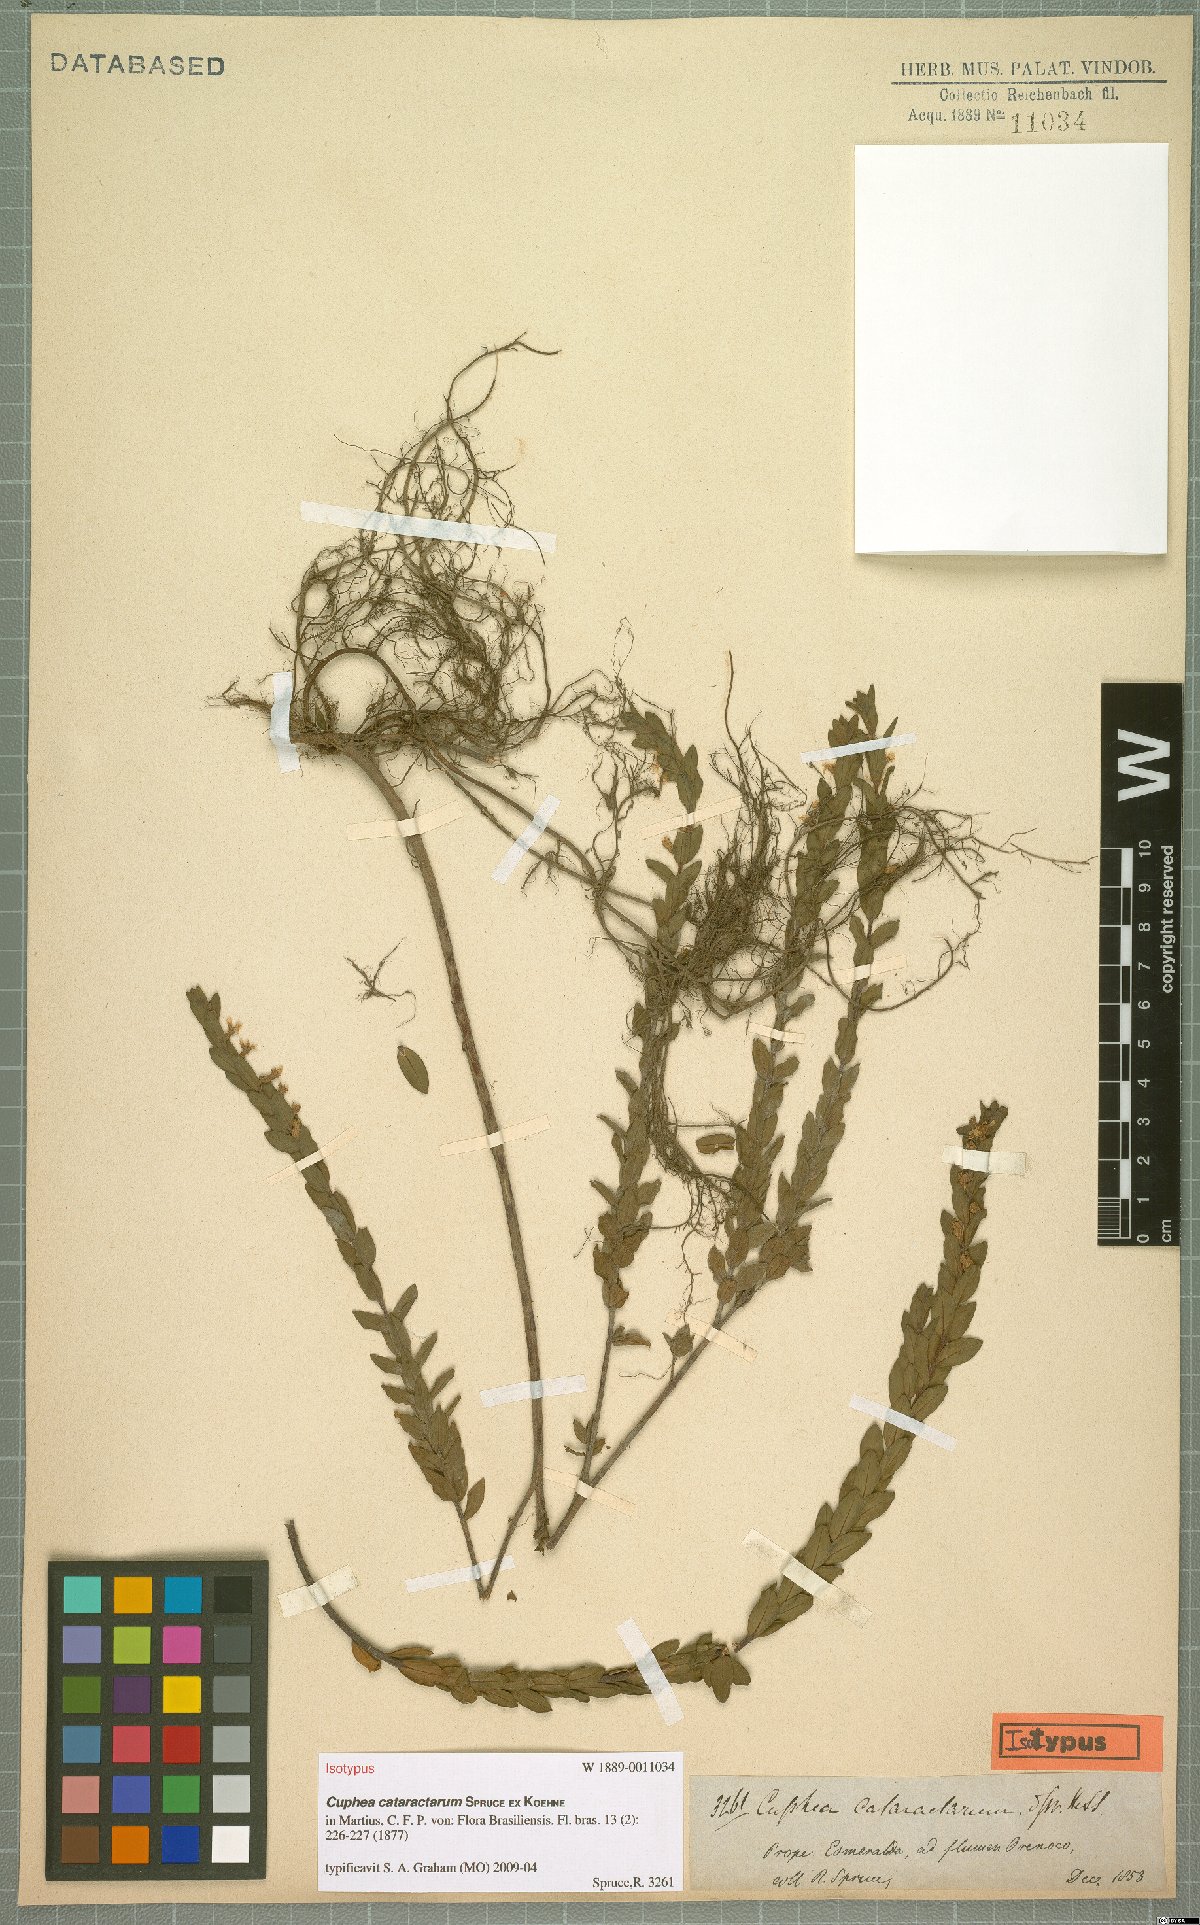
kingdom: Plantae
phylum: Tracheophyta
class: Magnoliopsida
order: Myrtales
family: Lythraceae
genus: Cuphea
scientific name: Cuphea cataractarum
